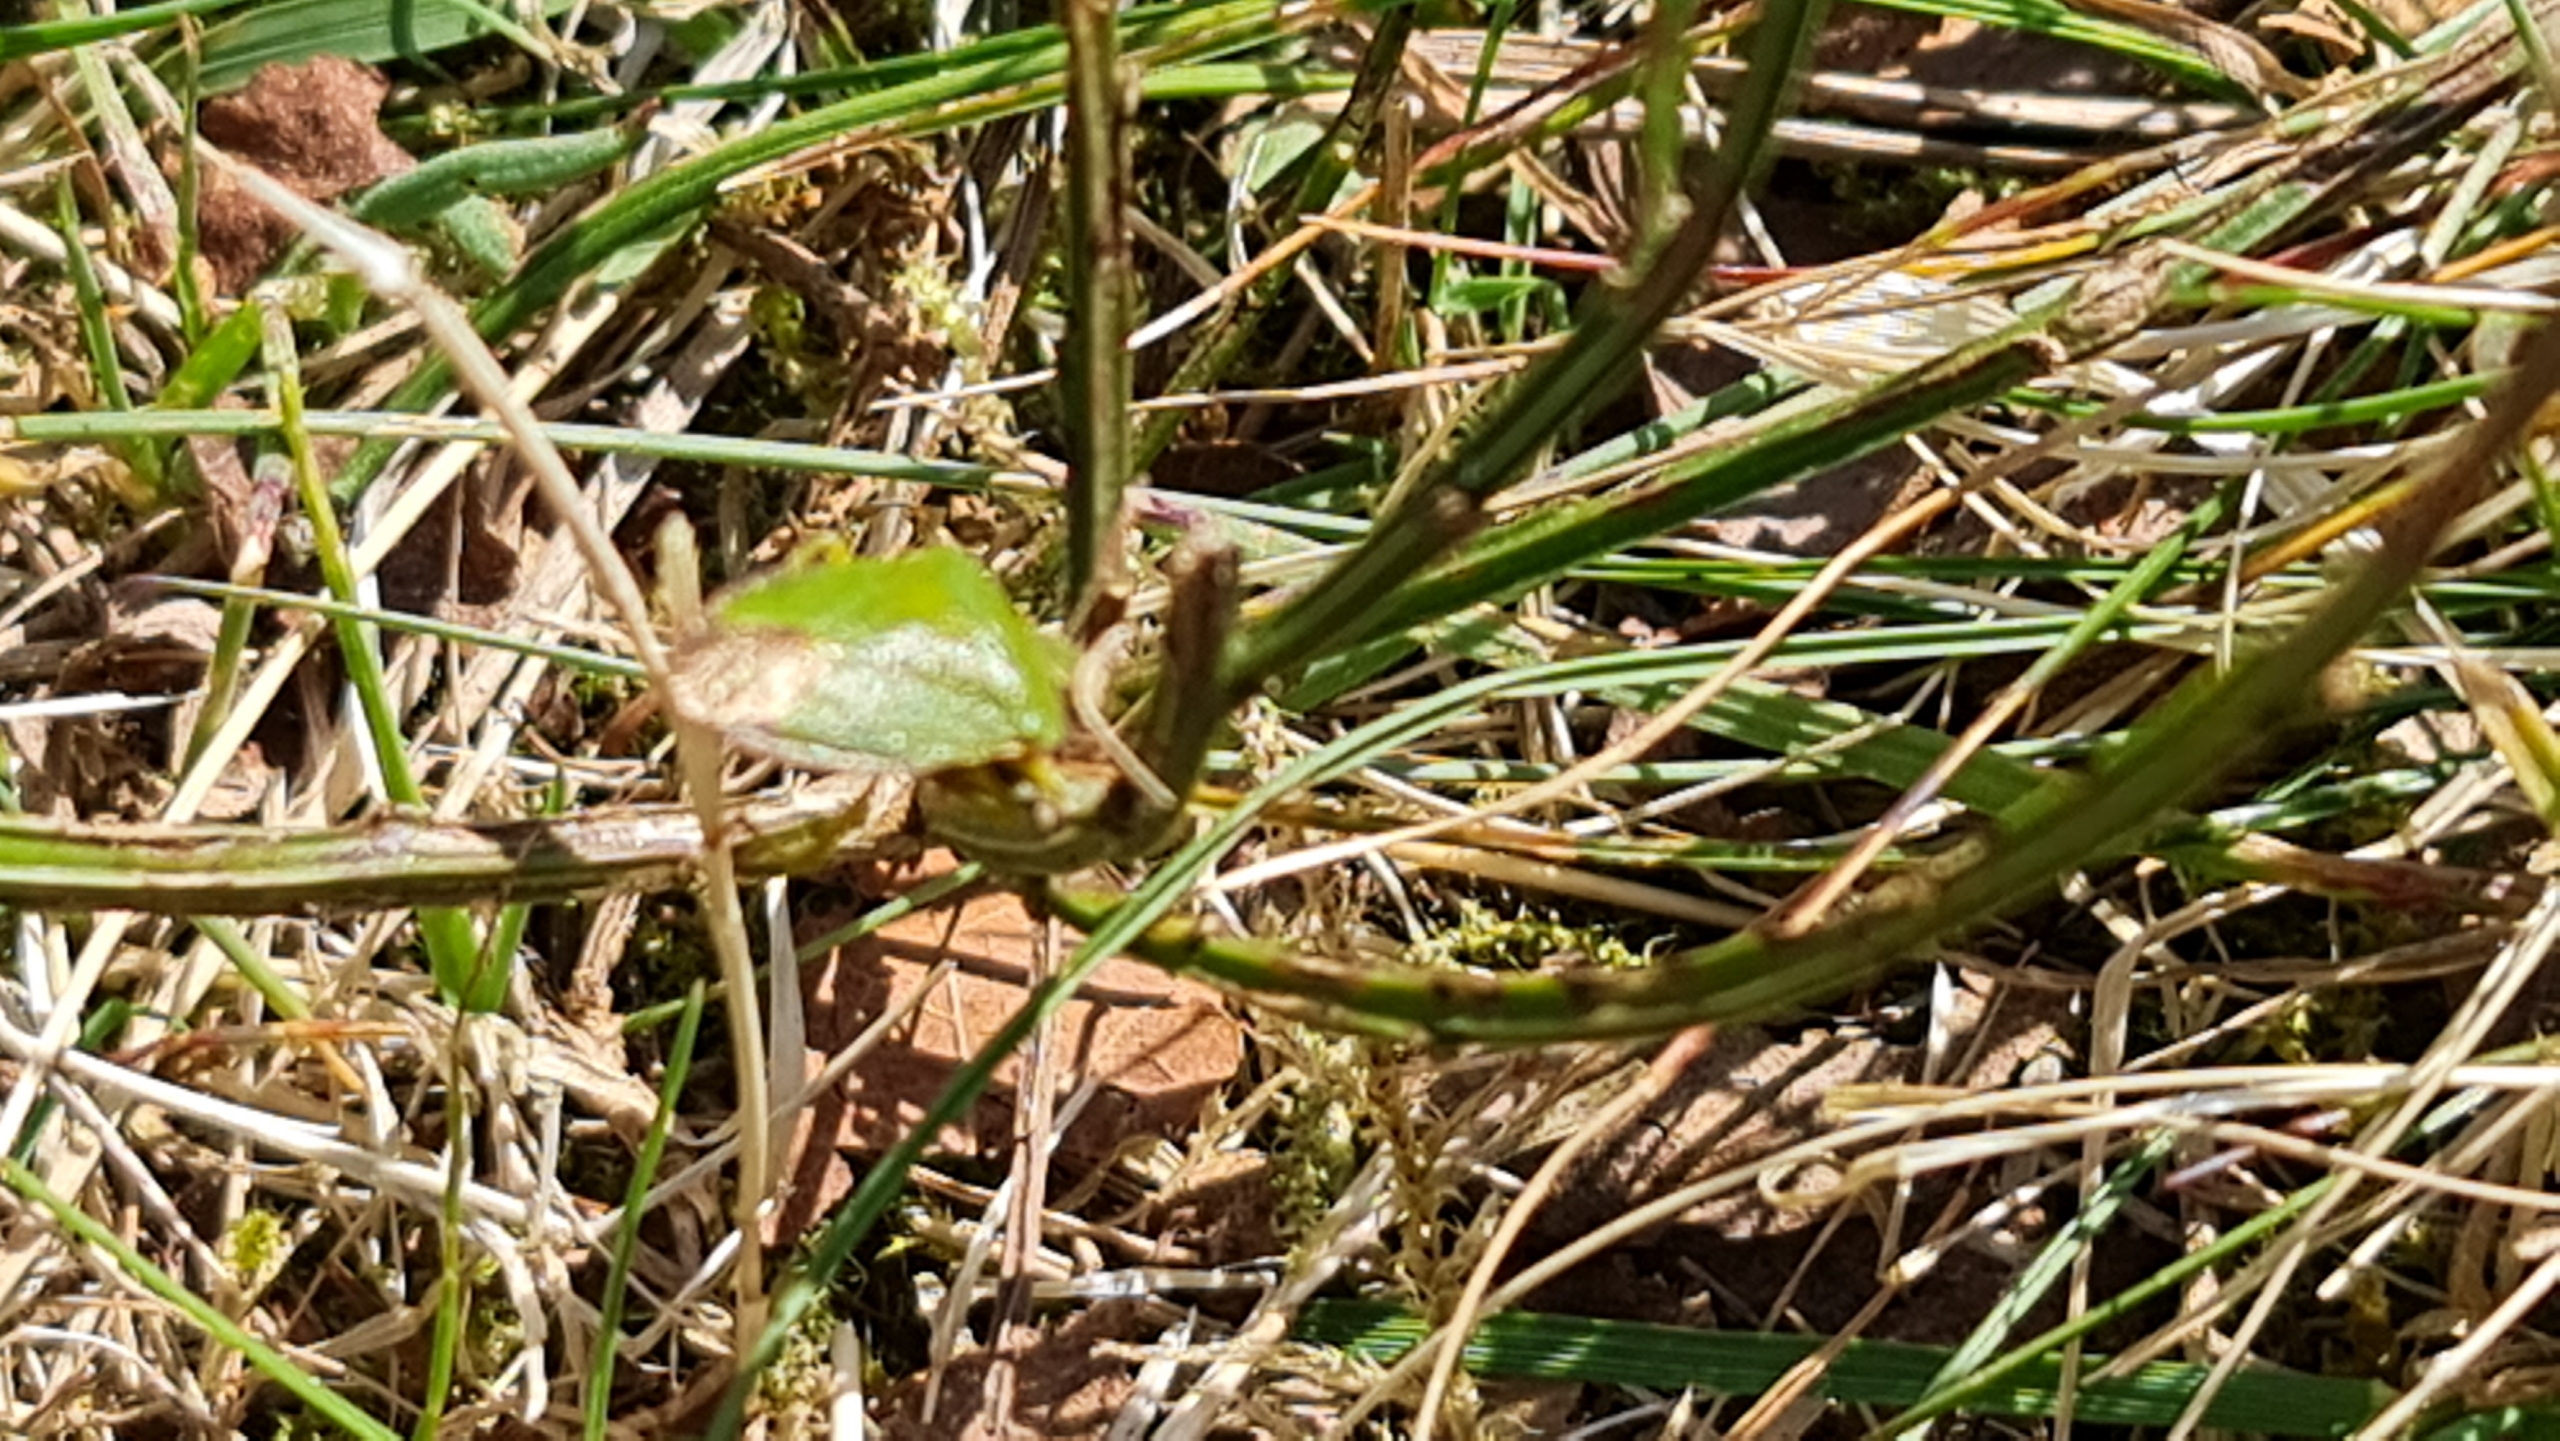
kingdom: Animalia
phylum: Arthropoda
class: Insecta
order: Hemiptera
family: Pentatomidae
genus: Palomena
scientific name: Palomena prasina
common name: Grøn bredtæge
